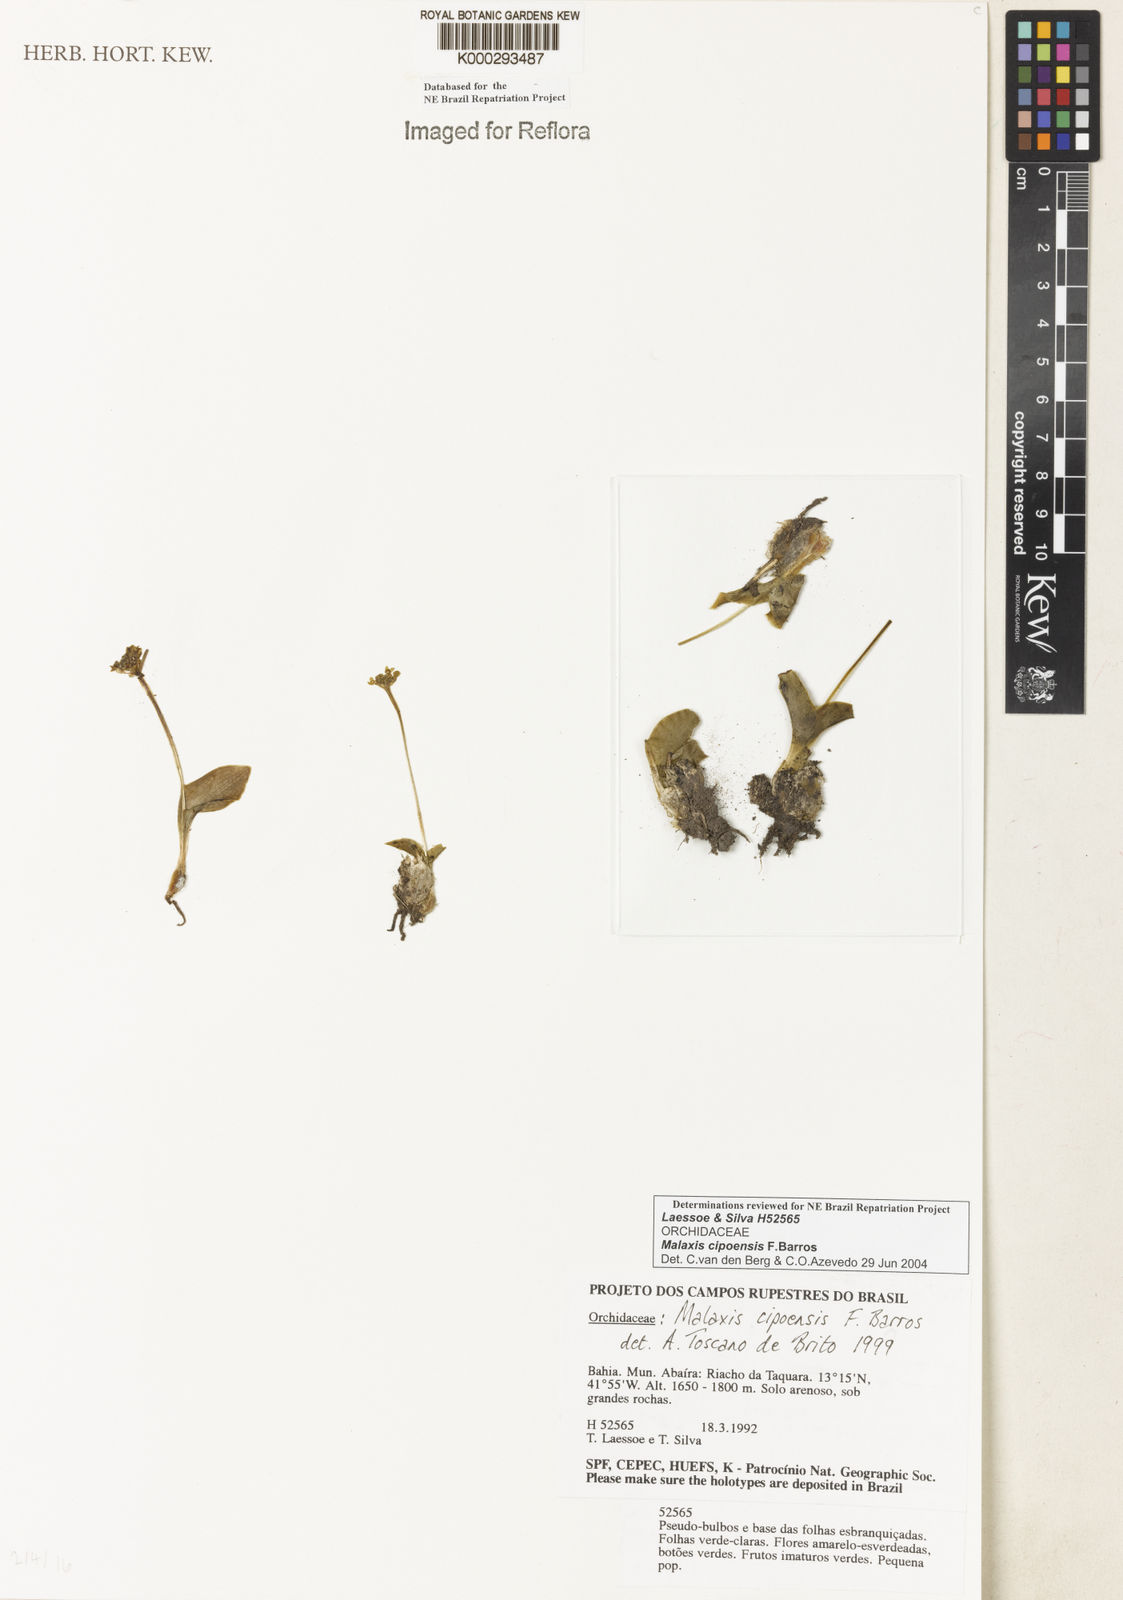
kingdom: Plantae
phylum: Tracheophyta
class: Liliopsida
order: Asparagales
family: Orchidaceae
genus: Malaxis
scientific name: Malaxis cipoensis
